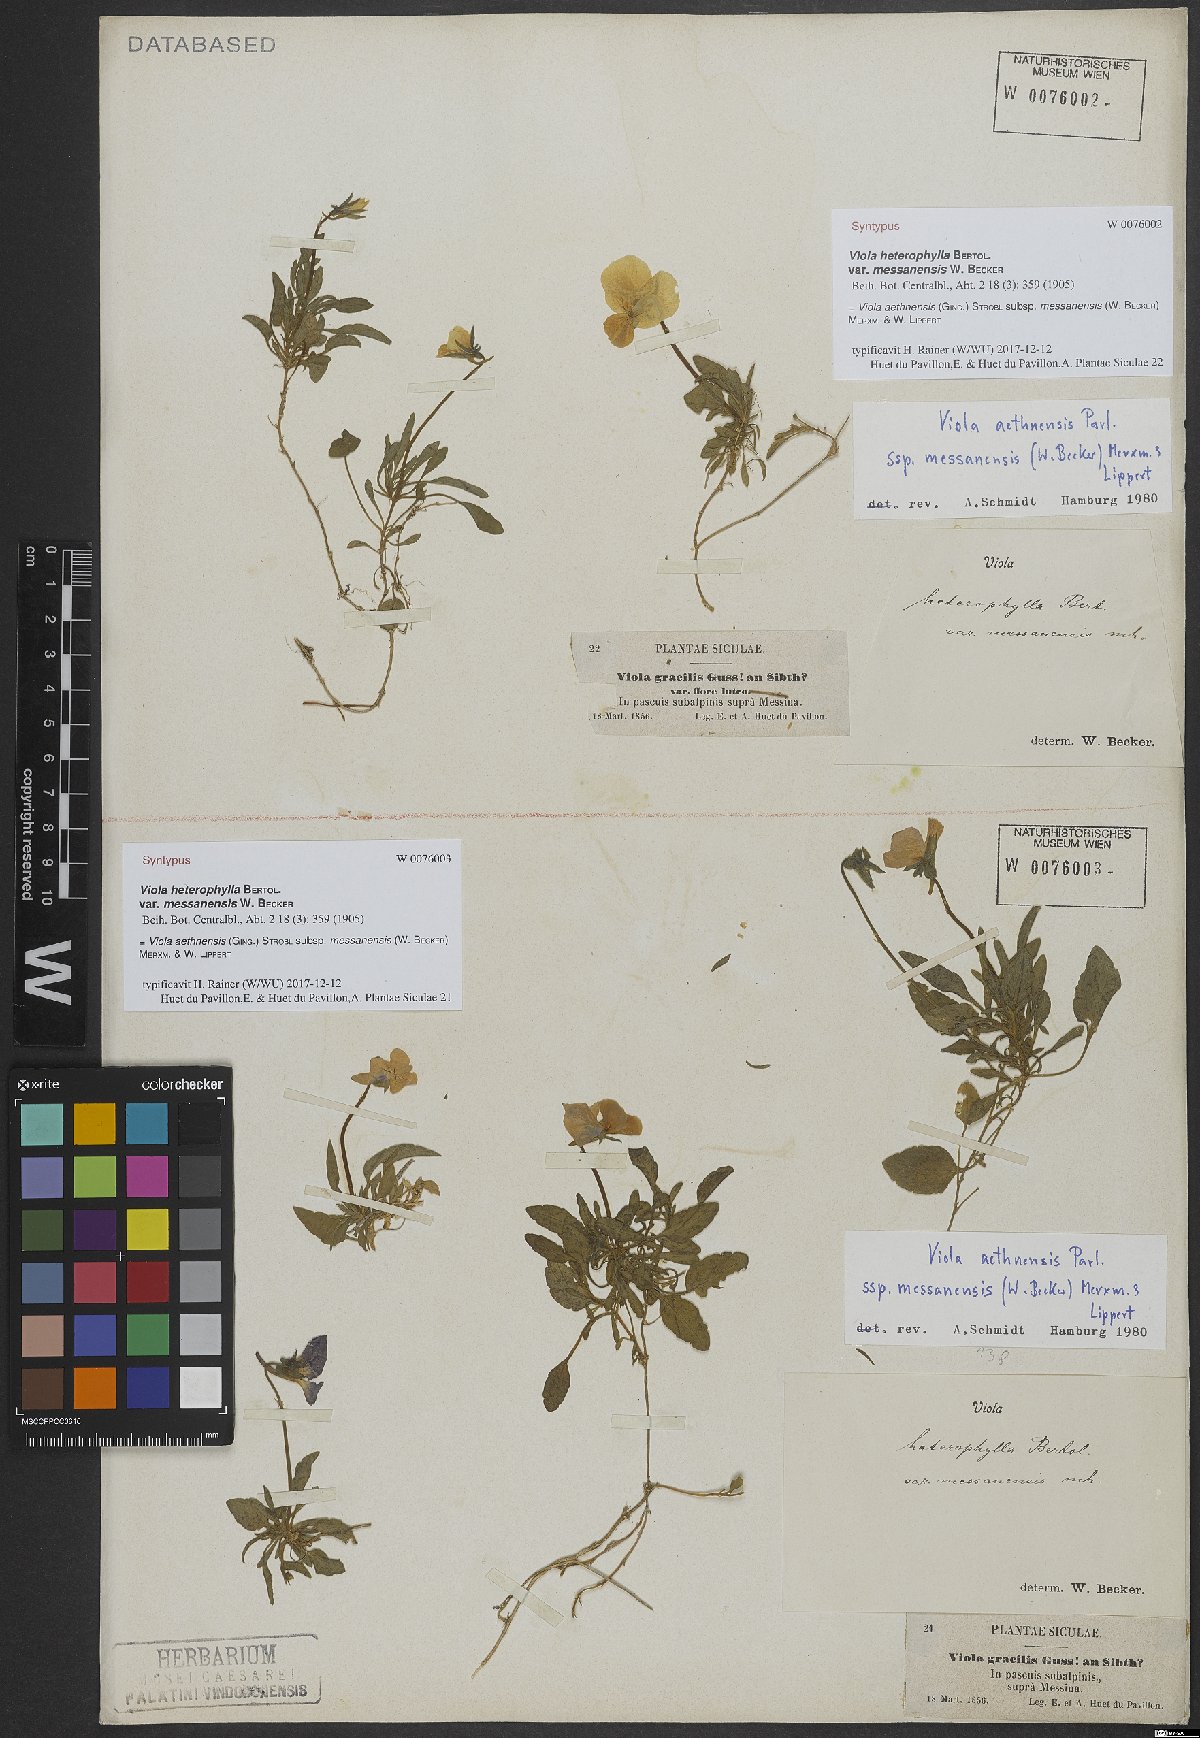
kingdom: Plantae
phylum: Tracheophyta
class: Magnoliopsida
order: Malpighiales
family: Violaceae
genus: Viola
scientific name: Viola aethnensis
